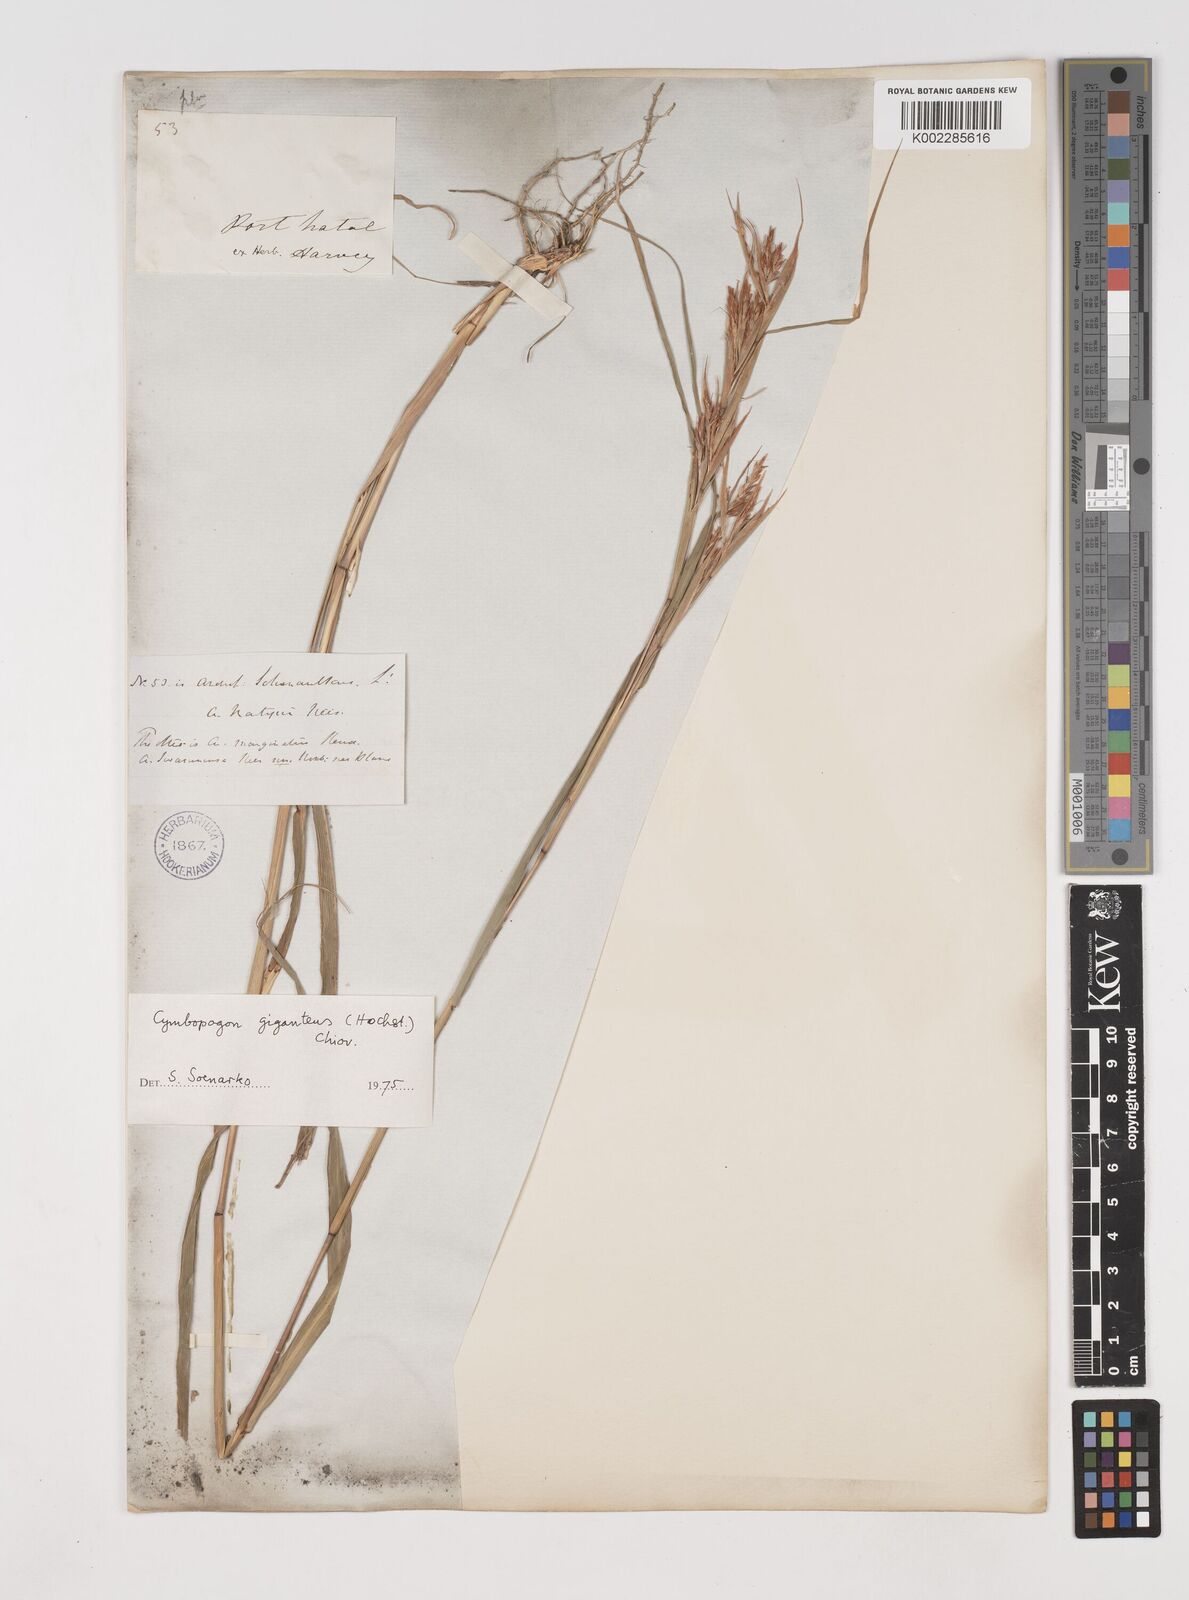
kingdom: Plantae
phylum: Tracheophyta
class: Liliopsida
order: Poales
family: Poaceae
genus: Cymbopogon
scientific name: Cymbopogon caesius
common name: Kachi grass
